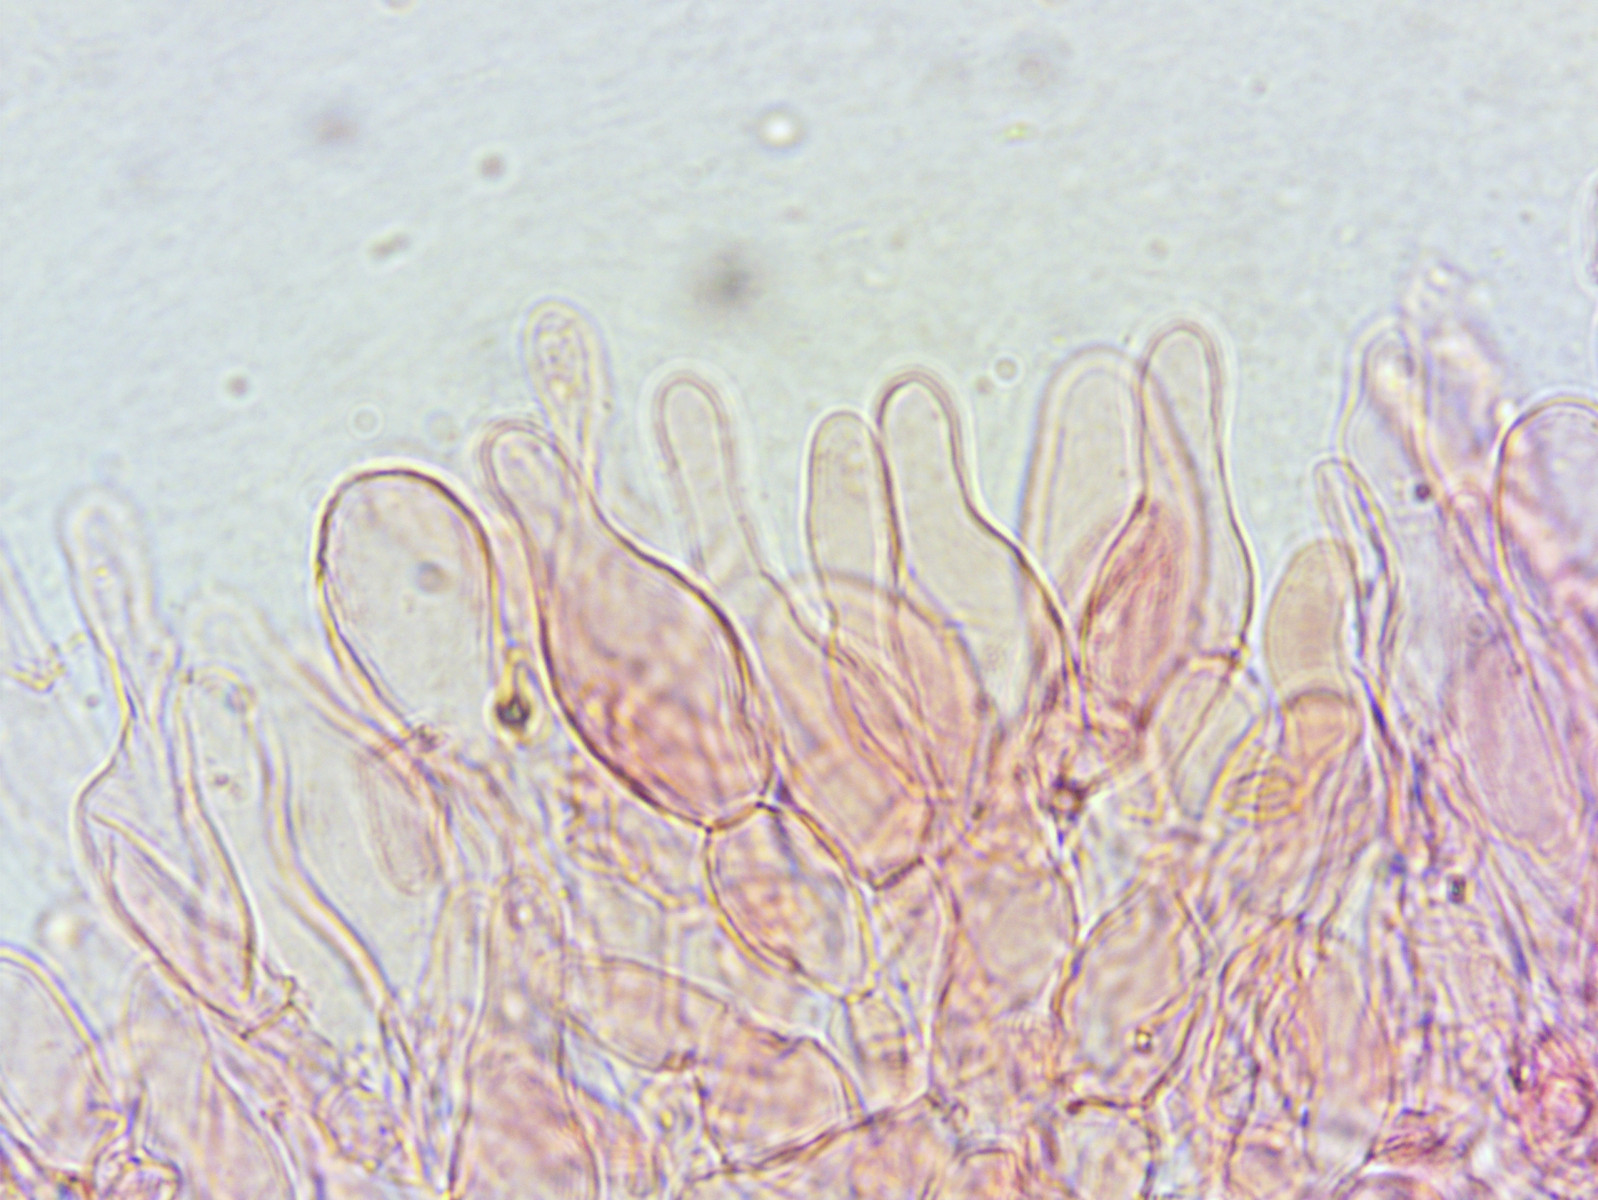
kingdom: Fungi
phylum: Basidiomycota
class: Agaricomycetes
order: Agaricales
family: Tubariaceae
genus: Tubaria
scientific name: Tubaria conspersa
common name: bleg fnughat
